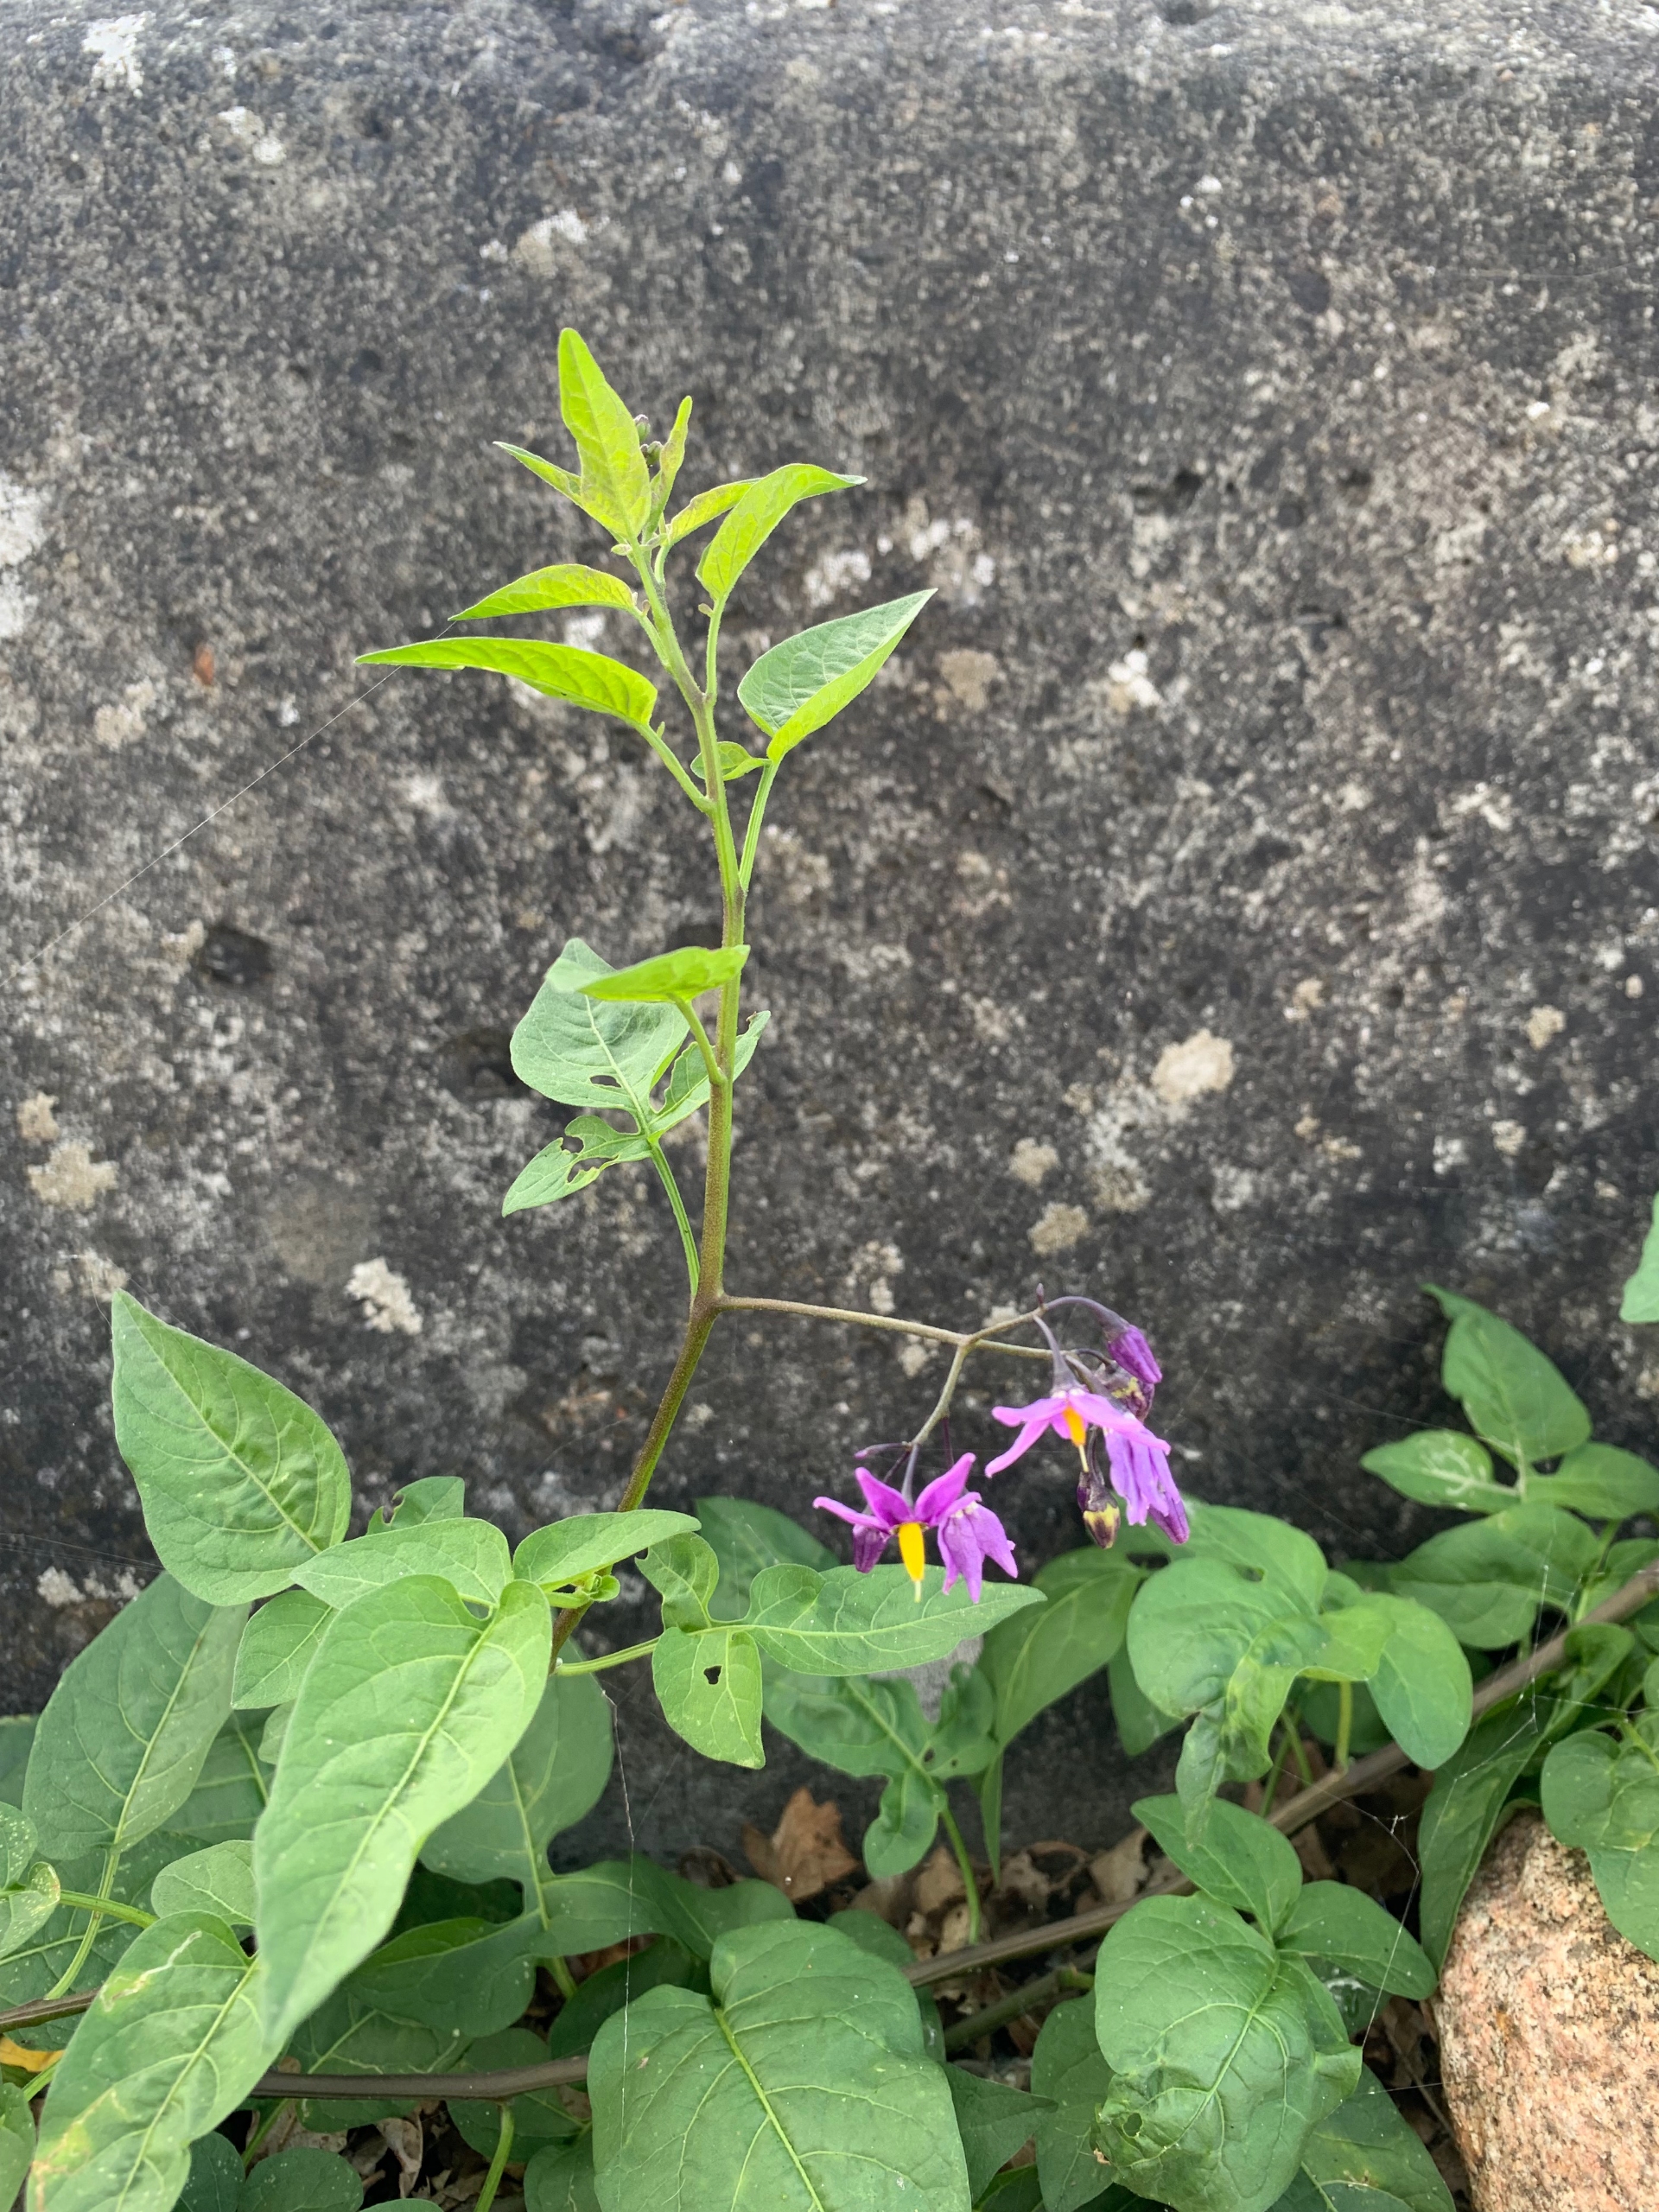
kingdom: Plantae
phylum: Tracheophyta
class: Magnoliopsida
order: Solanales
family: Solanaceae
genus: Solanum
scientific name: Solanum dulcamara
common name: Bittersød natskygge
